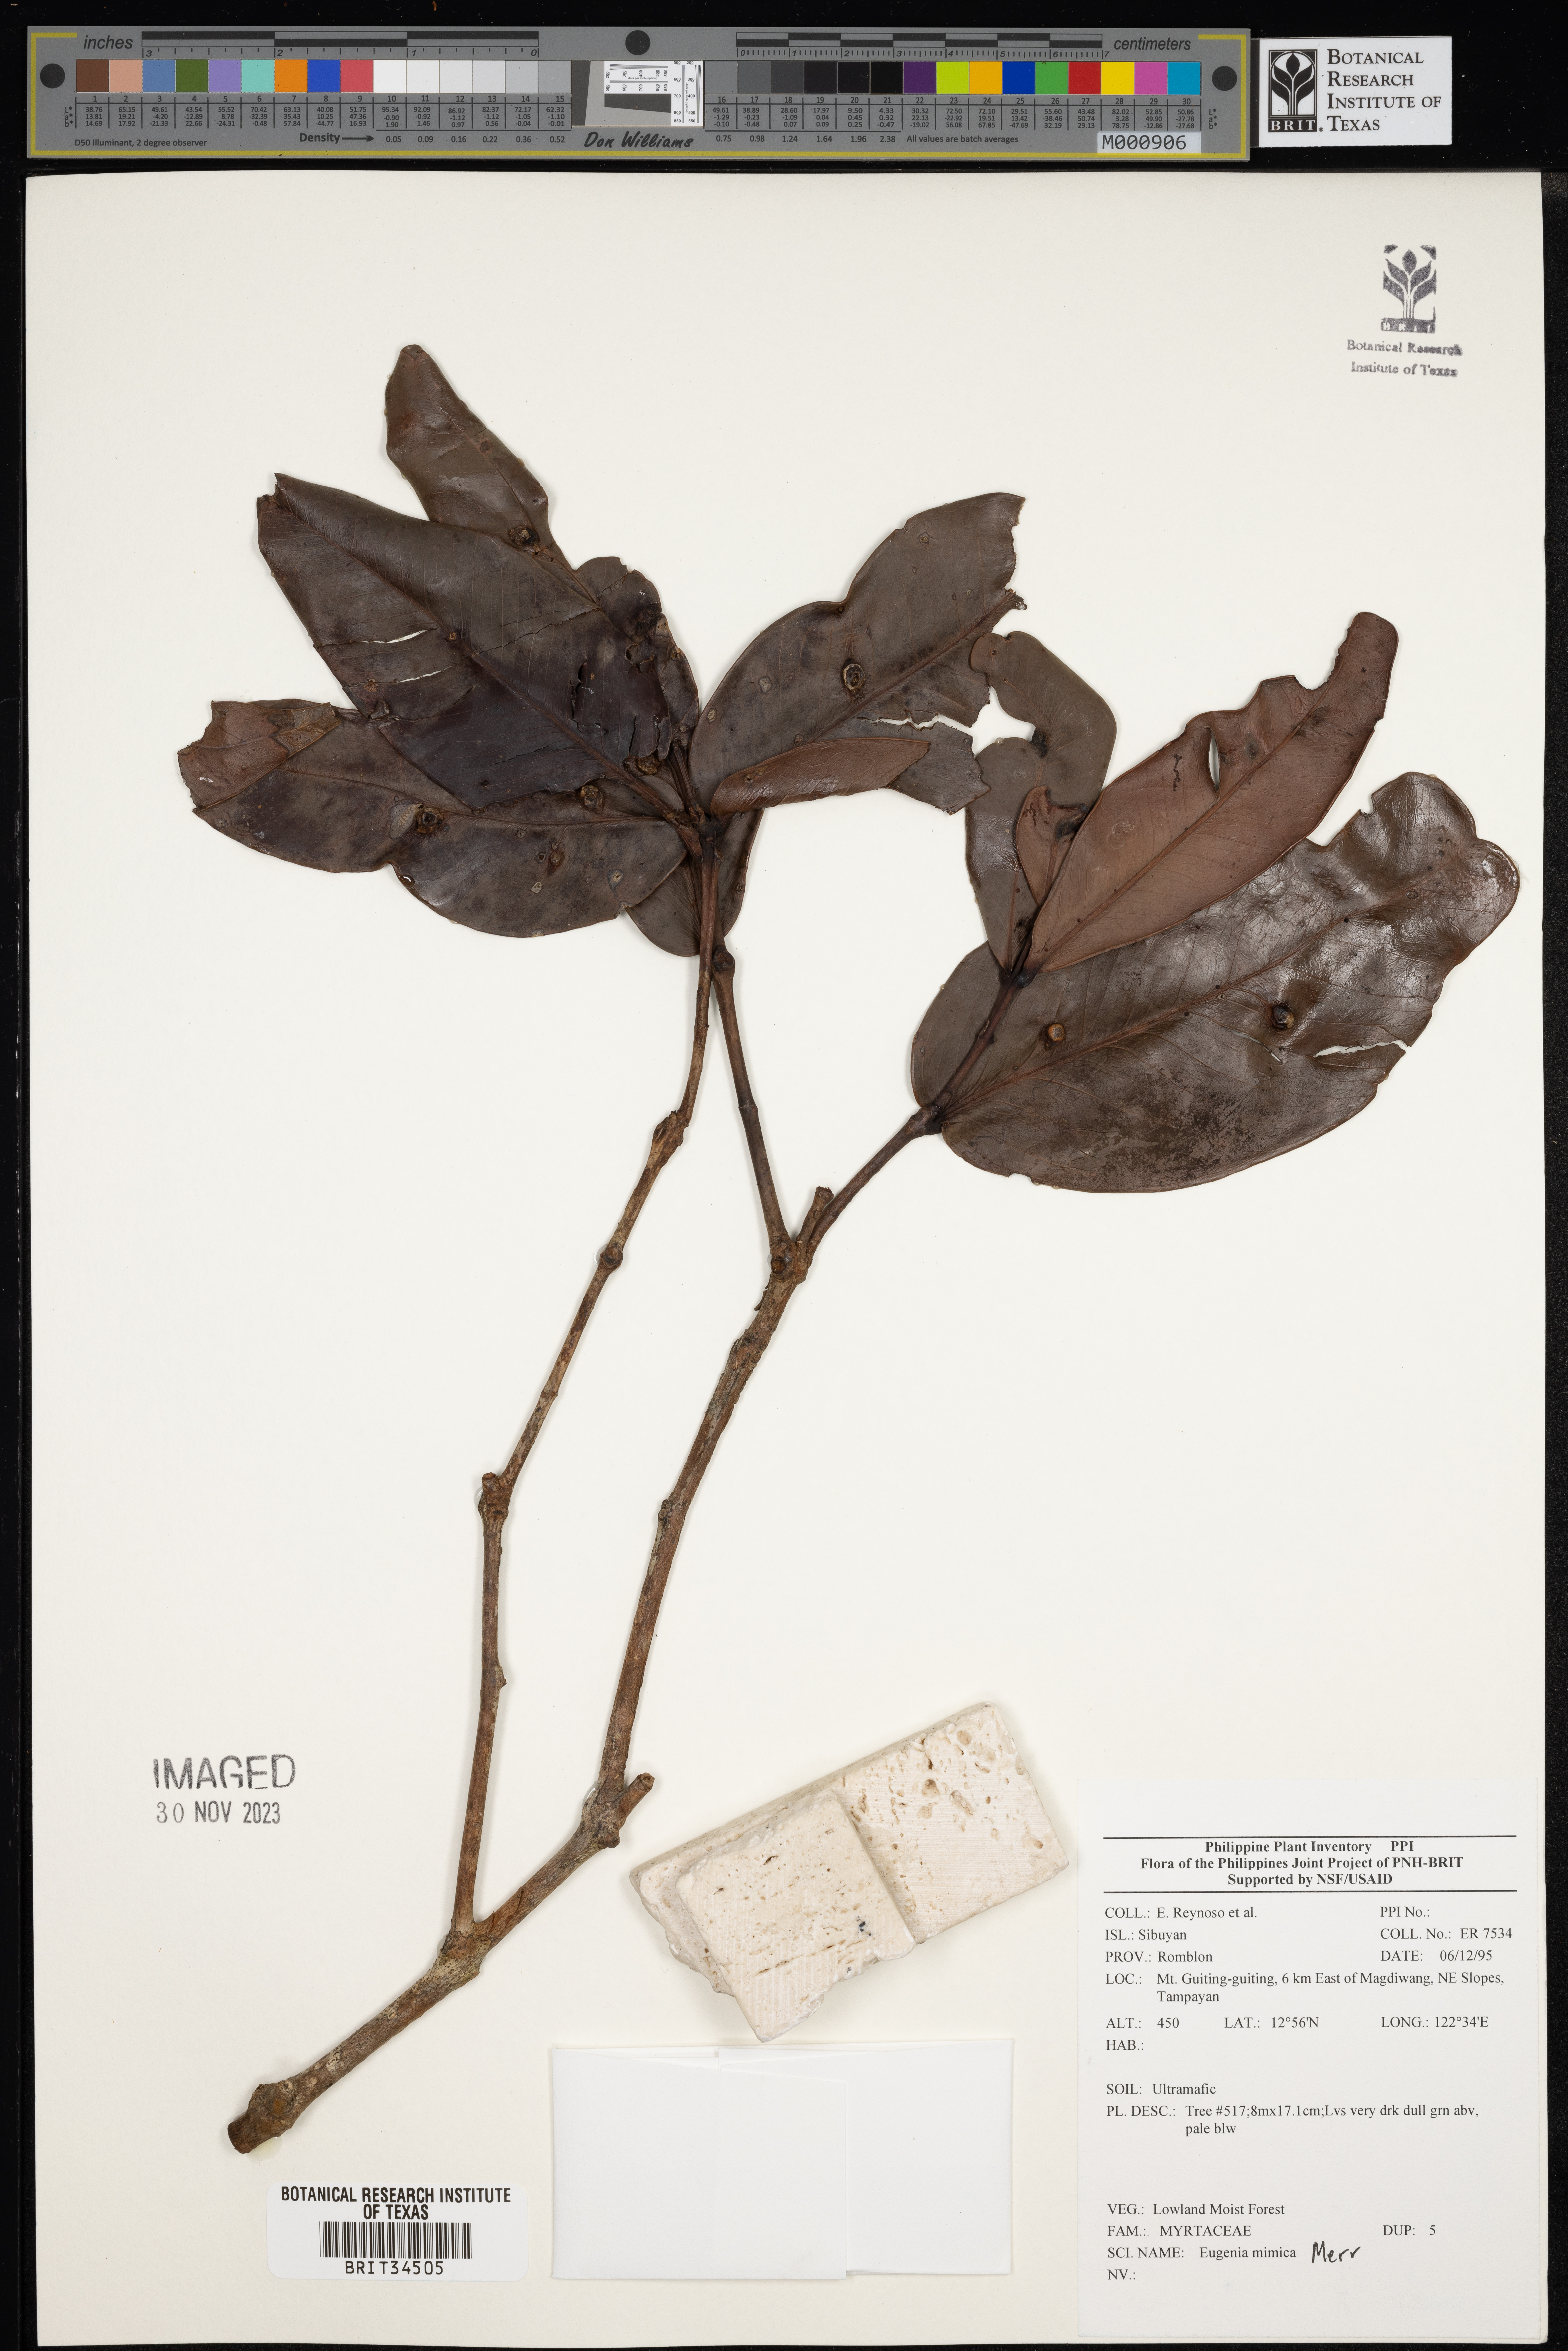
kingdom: Plantae
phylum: Tracheophyta
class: Magnoliopsida
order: Myrtales
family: Myrtaceae
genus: Eugenia
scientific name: Eugenia
